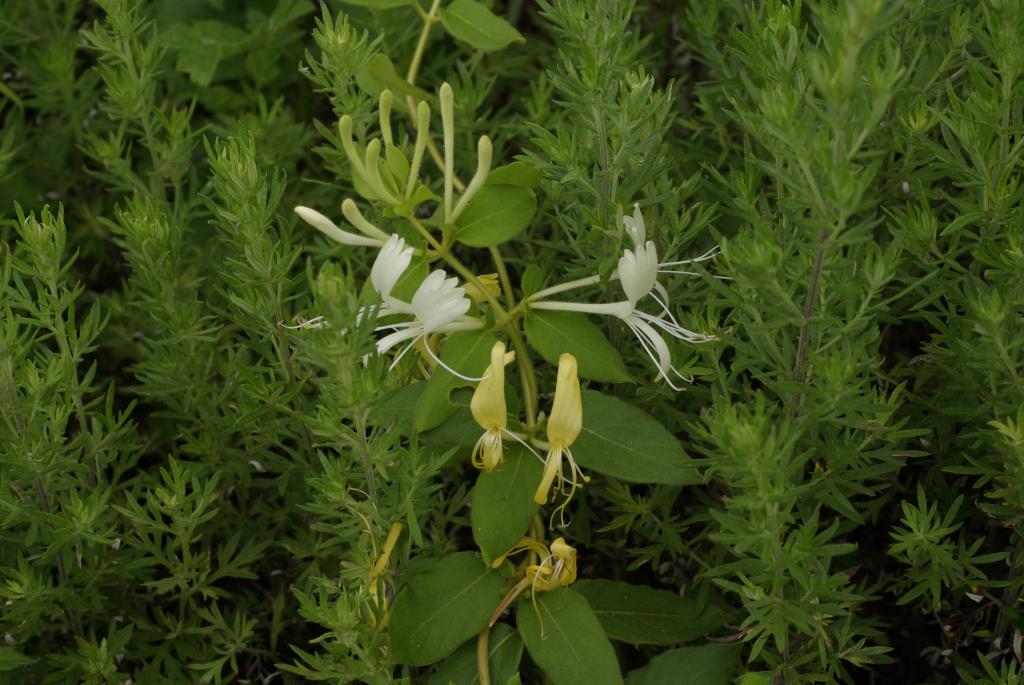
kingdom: Plantae
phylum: Tracheophyta
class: Magnoliopsida
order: Dipsacales
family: Caprifoliaceae
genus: Lonicera
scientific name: Lonicera japonica
